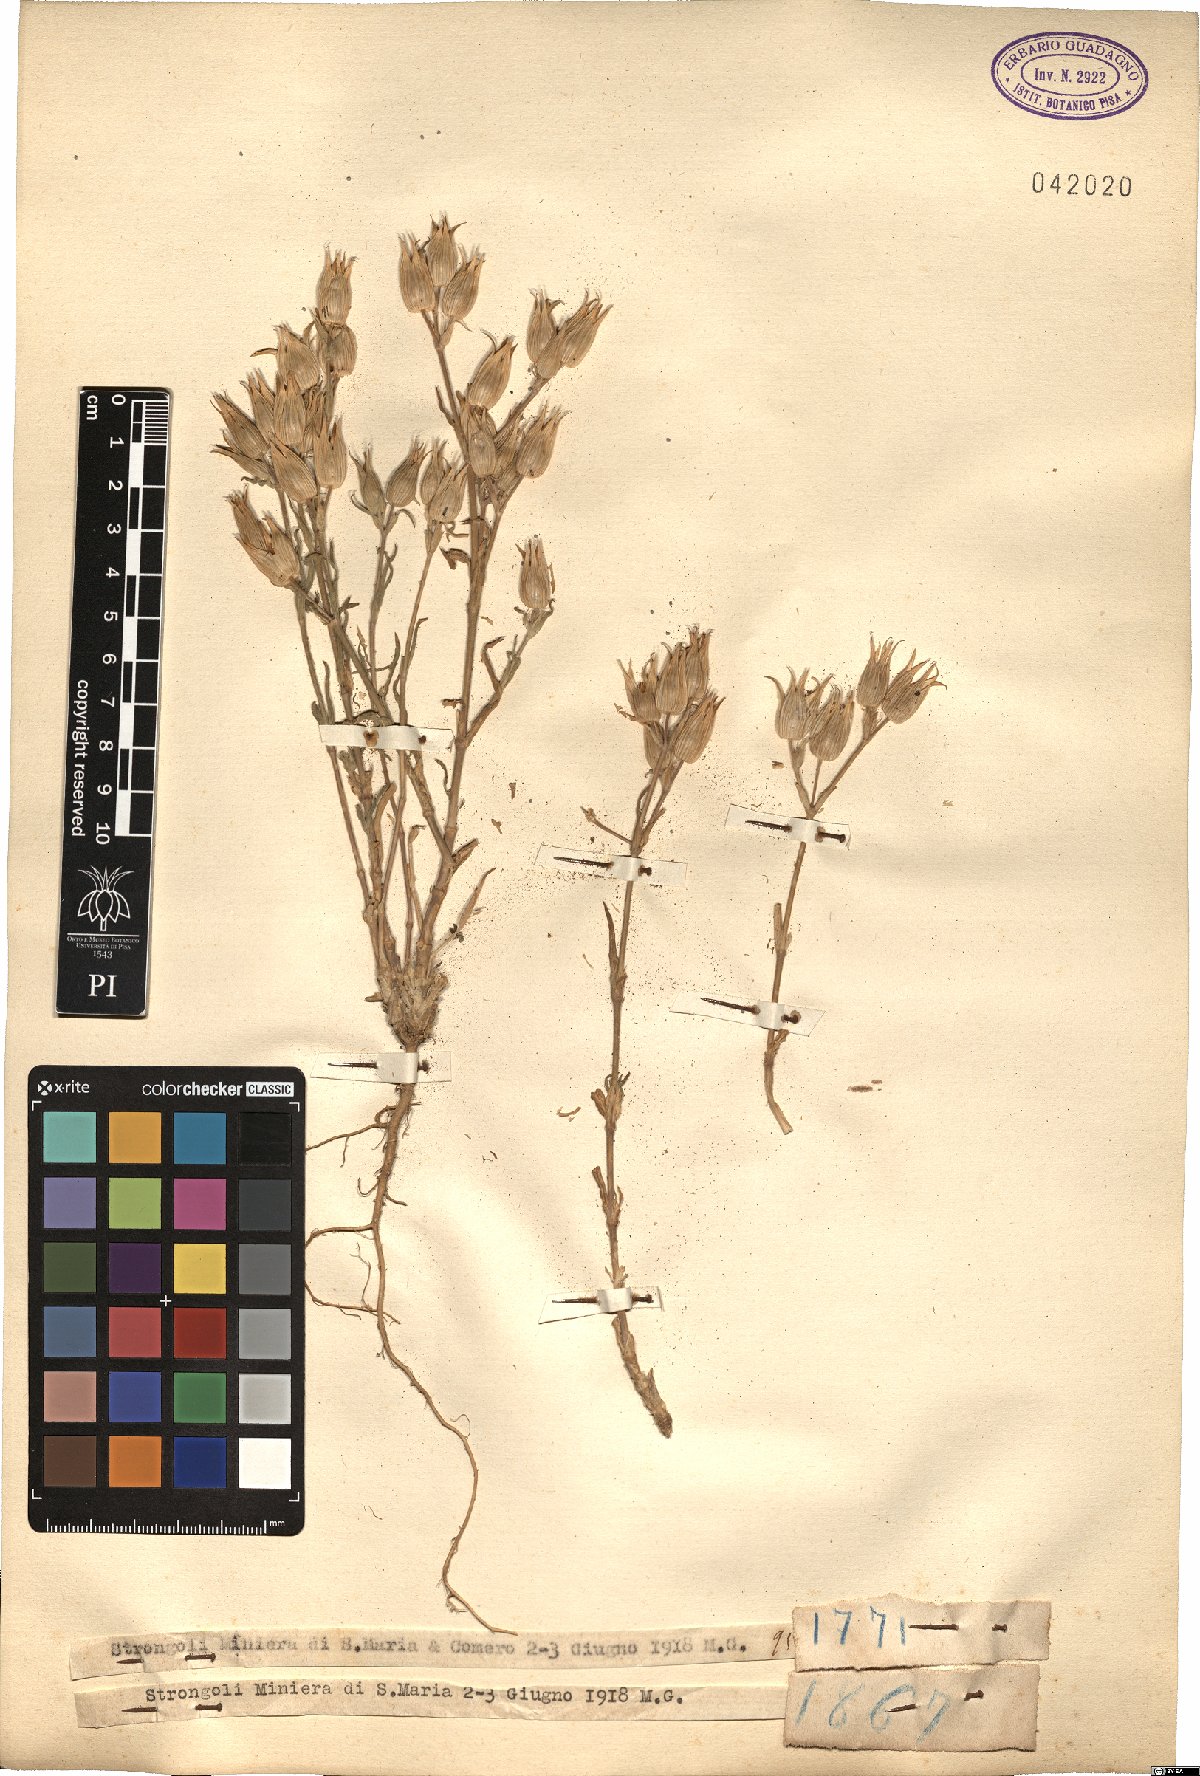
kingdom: Plantae
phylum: Tracheophyta
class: Magnoliopsida
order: Caryophyllales
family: Caryophyllaceae
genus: Silene
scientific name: Silene
